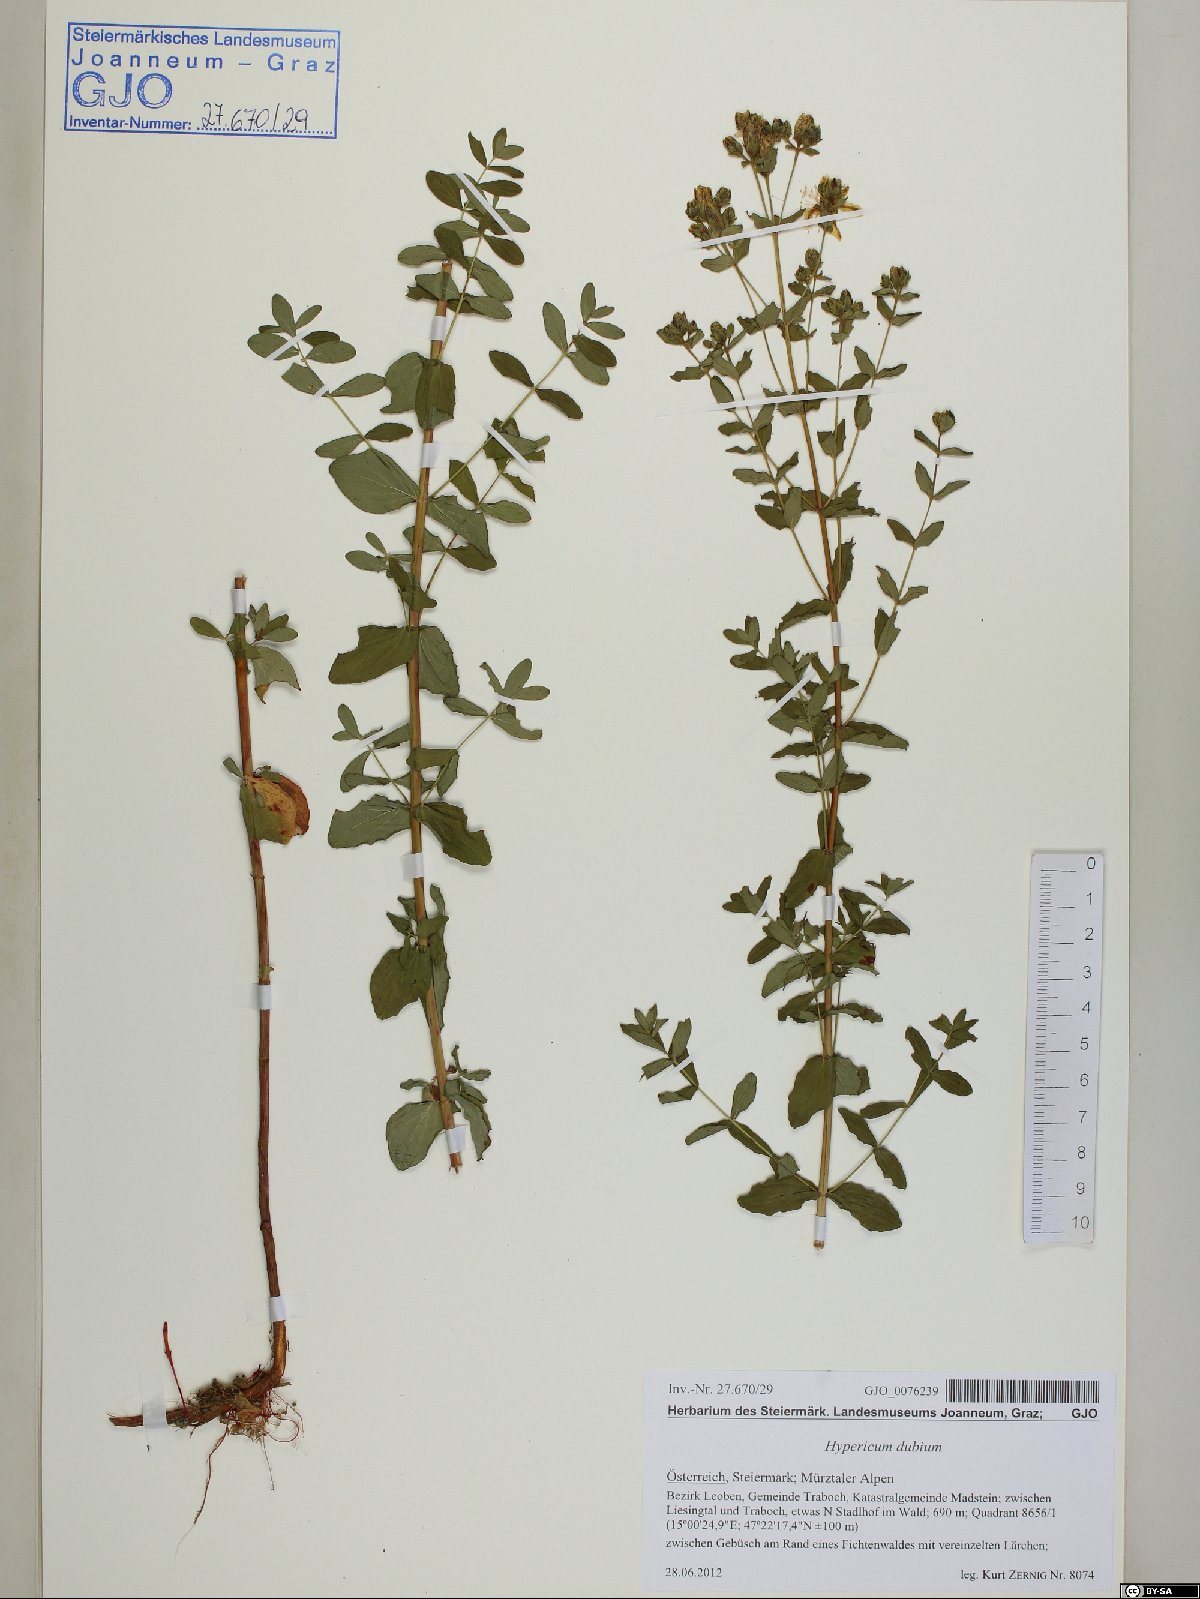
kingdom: Plantae
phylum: Tracheophyta
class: Magnoliopsida
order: Malpighiales
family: Hypericaceae
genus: Hypericum
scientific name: Hypericum dubium
